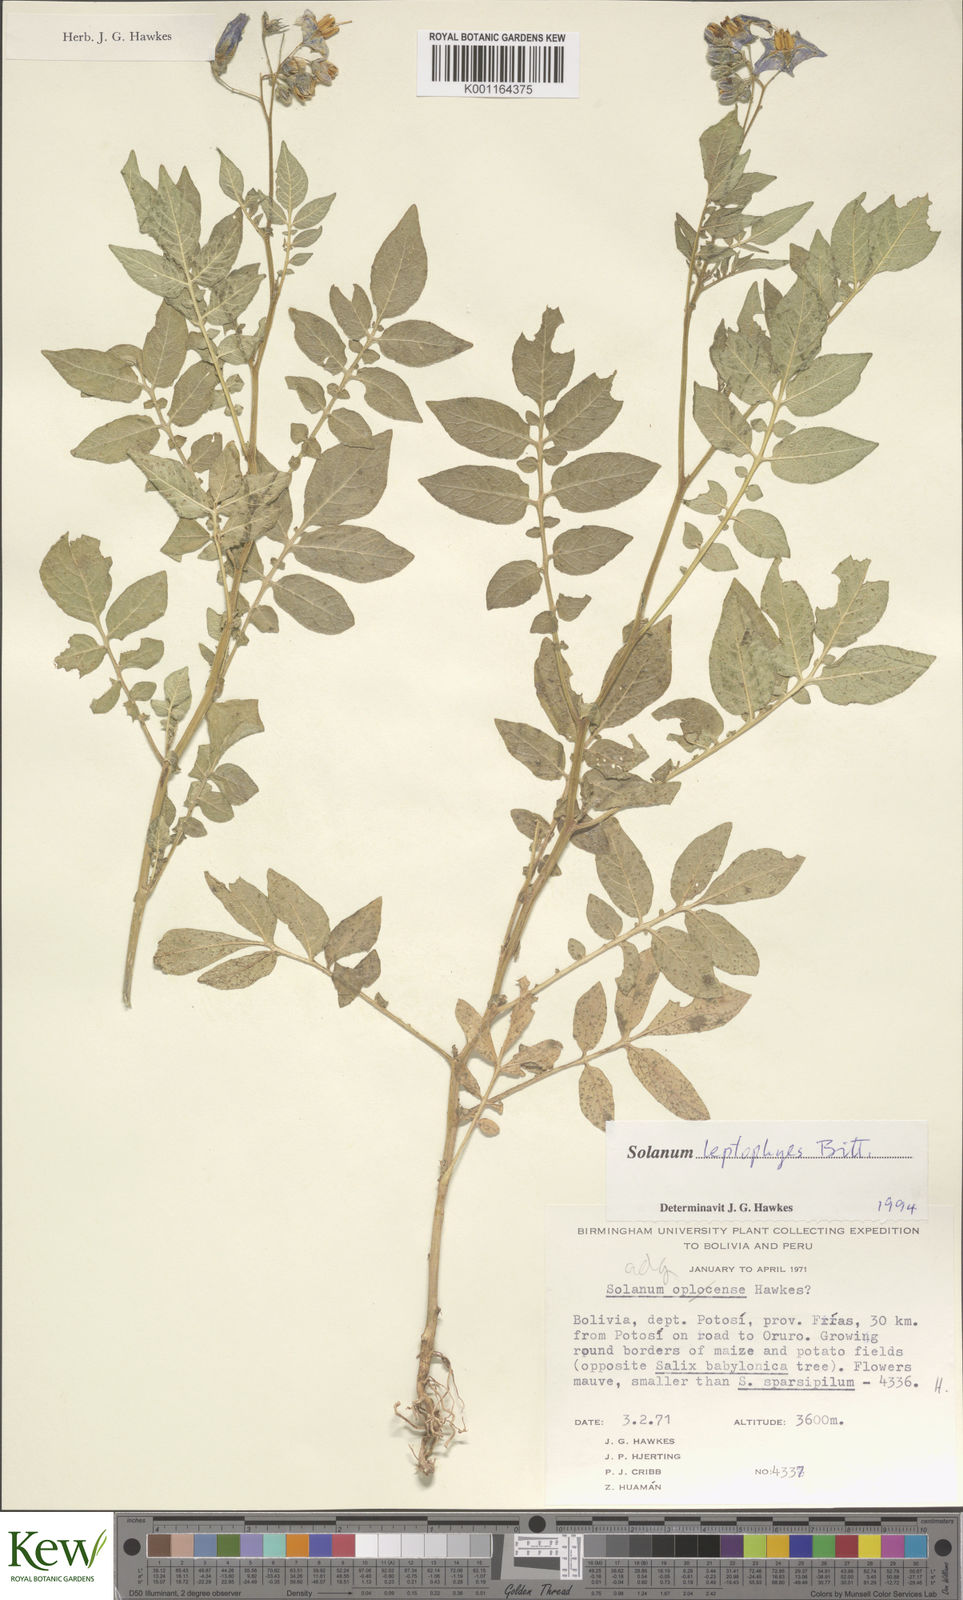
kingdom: Plantae
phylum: Tracheophyta
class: Magnoliopsida
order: Solanales
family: Solanaceae
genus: Solanum
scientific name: Solanum brevicaule
